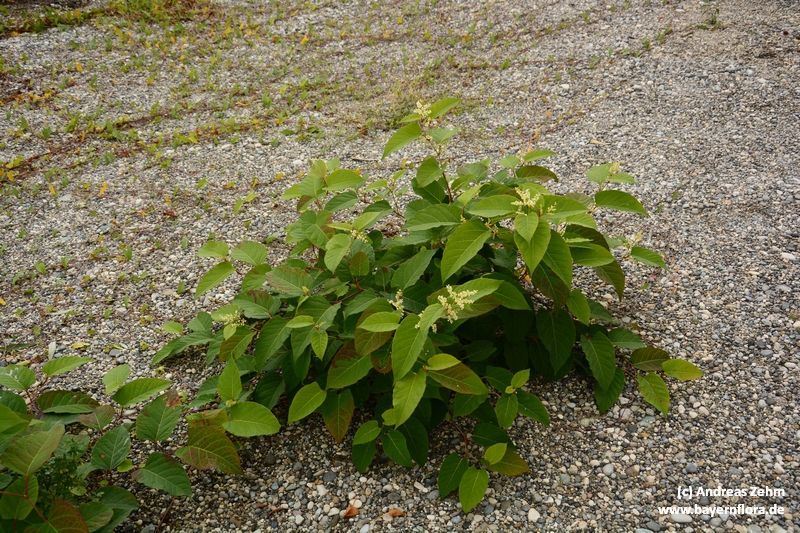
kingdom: Plantae
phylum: Tracheophyta
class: Magnoliopsida
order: Caryophyllales
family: Polygonaceae
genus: Reynoutria
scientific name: Reynoutria japonica
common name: Japanese knotweed
